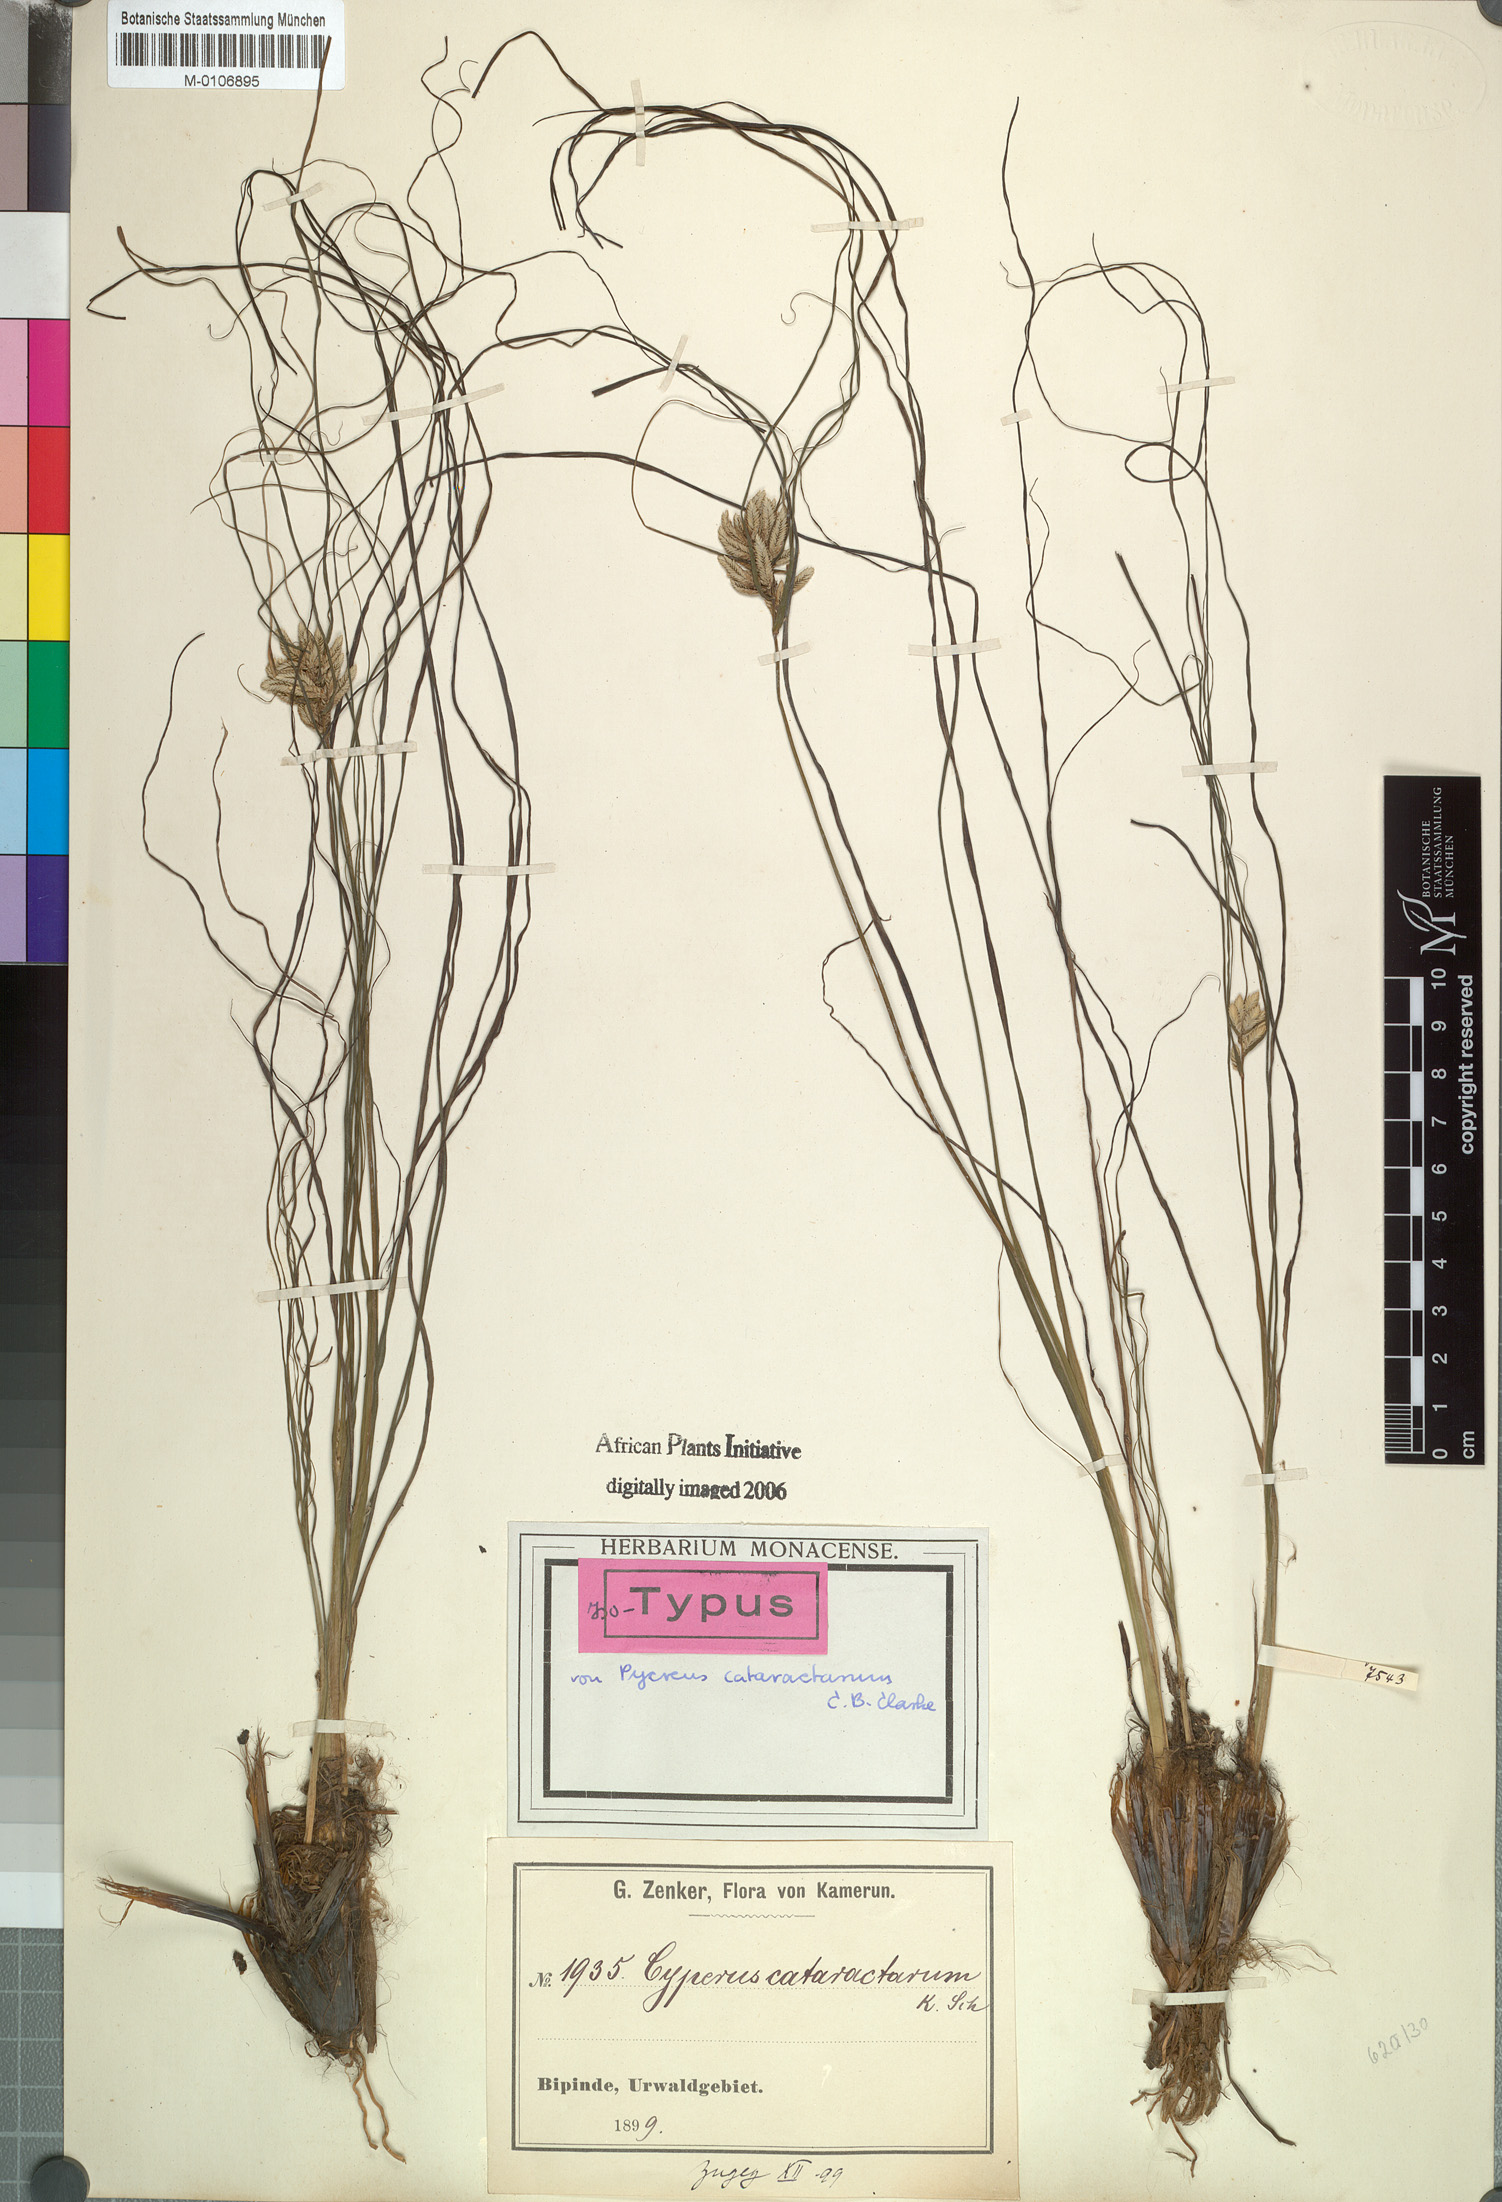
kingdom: Plantae
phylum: Tracheophyta
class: Liliopsida
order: Poales
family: Cyperaceae
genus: Cyperus
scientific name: Cyperus cataractarum
